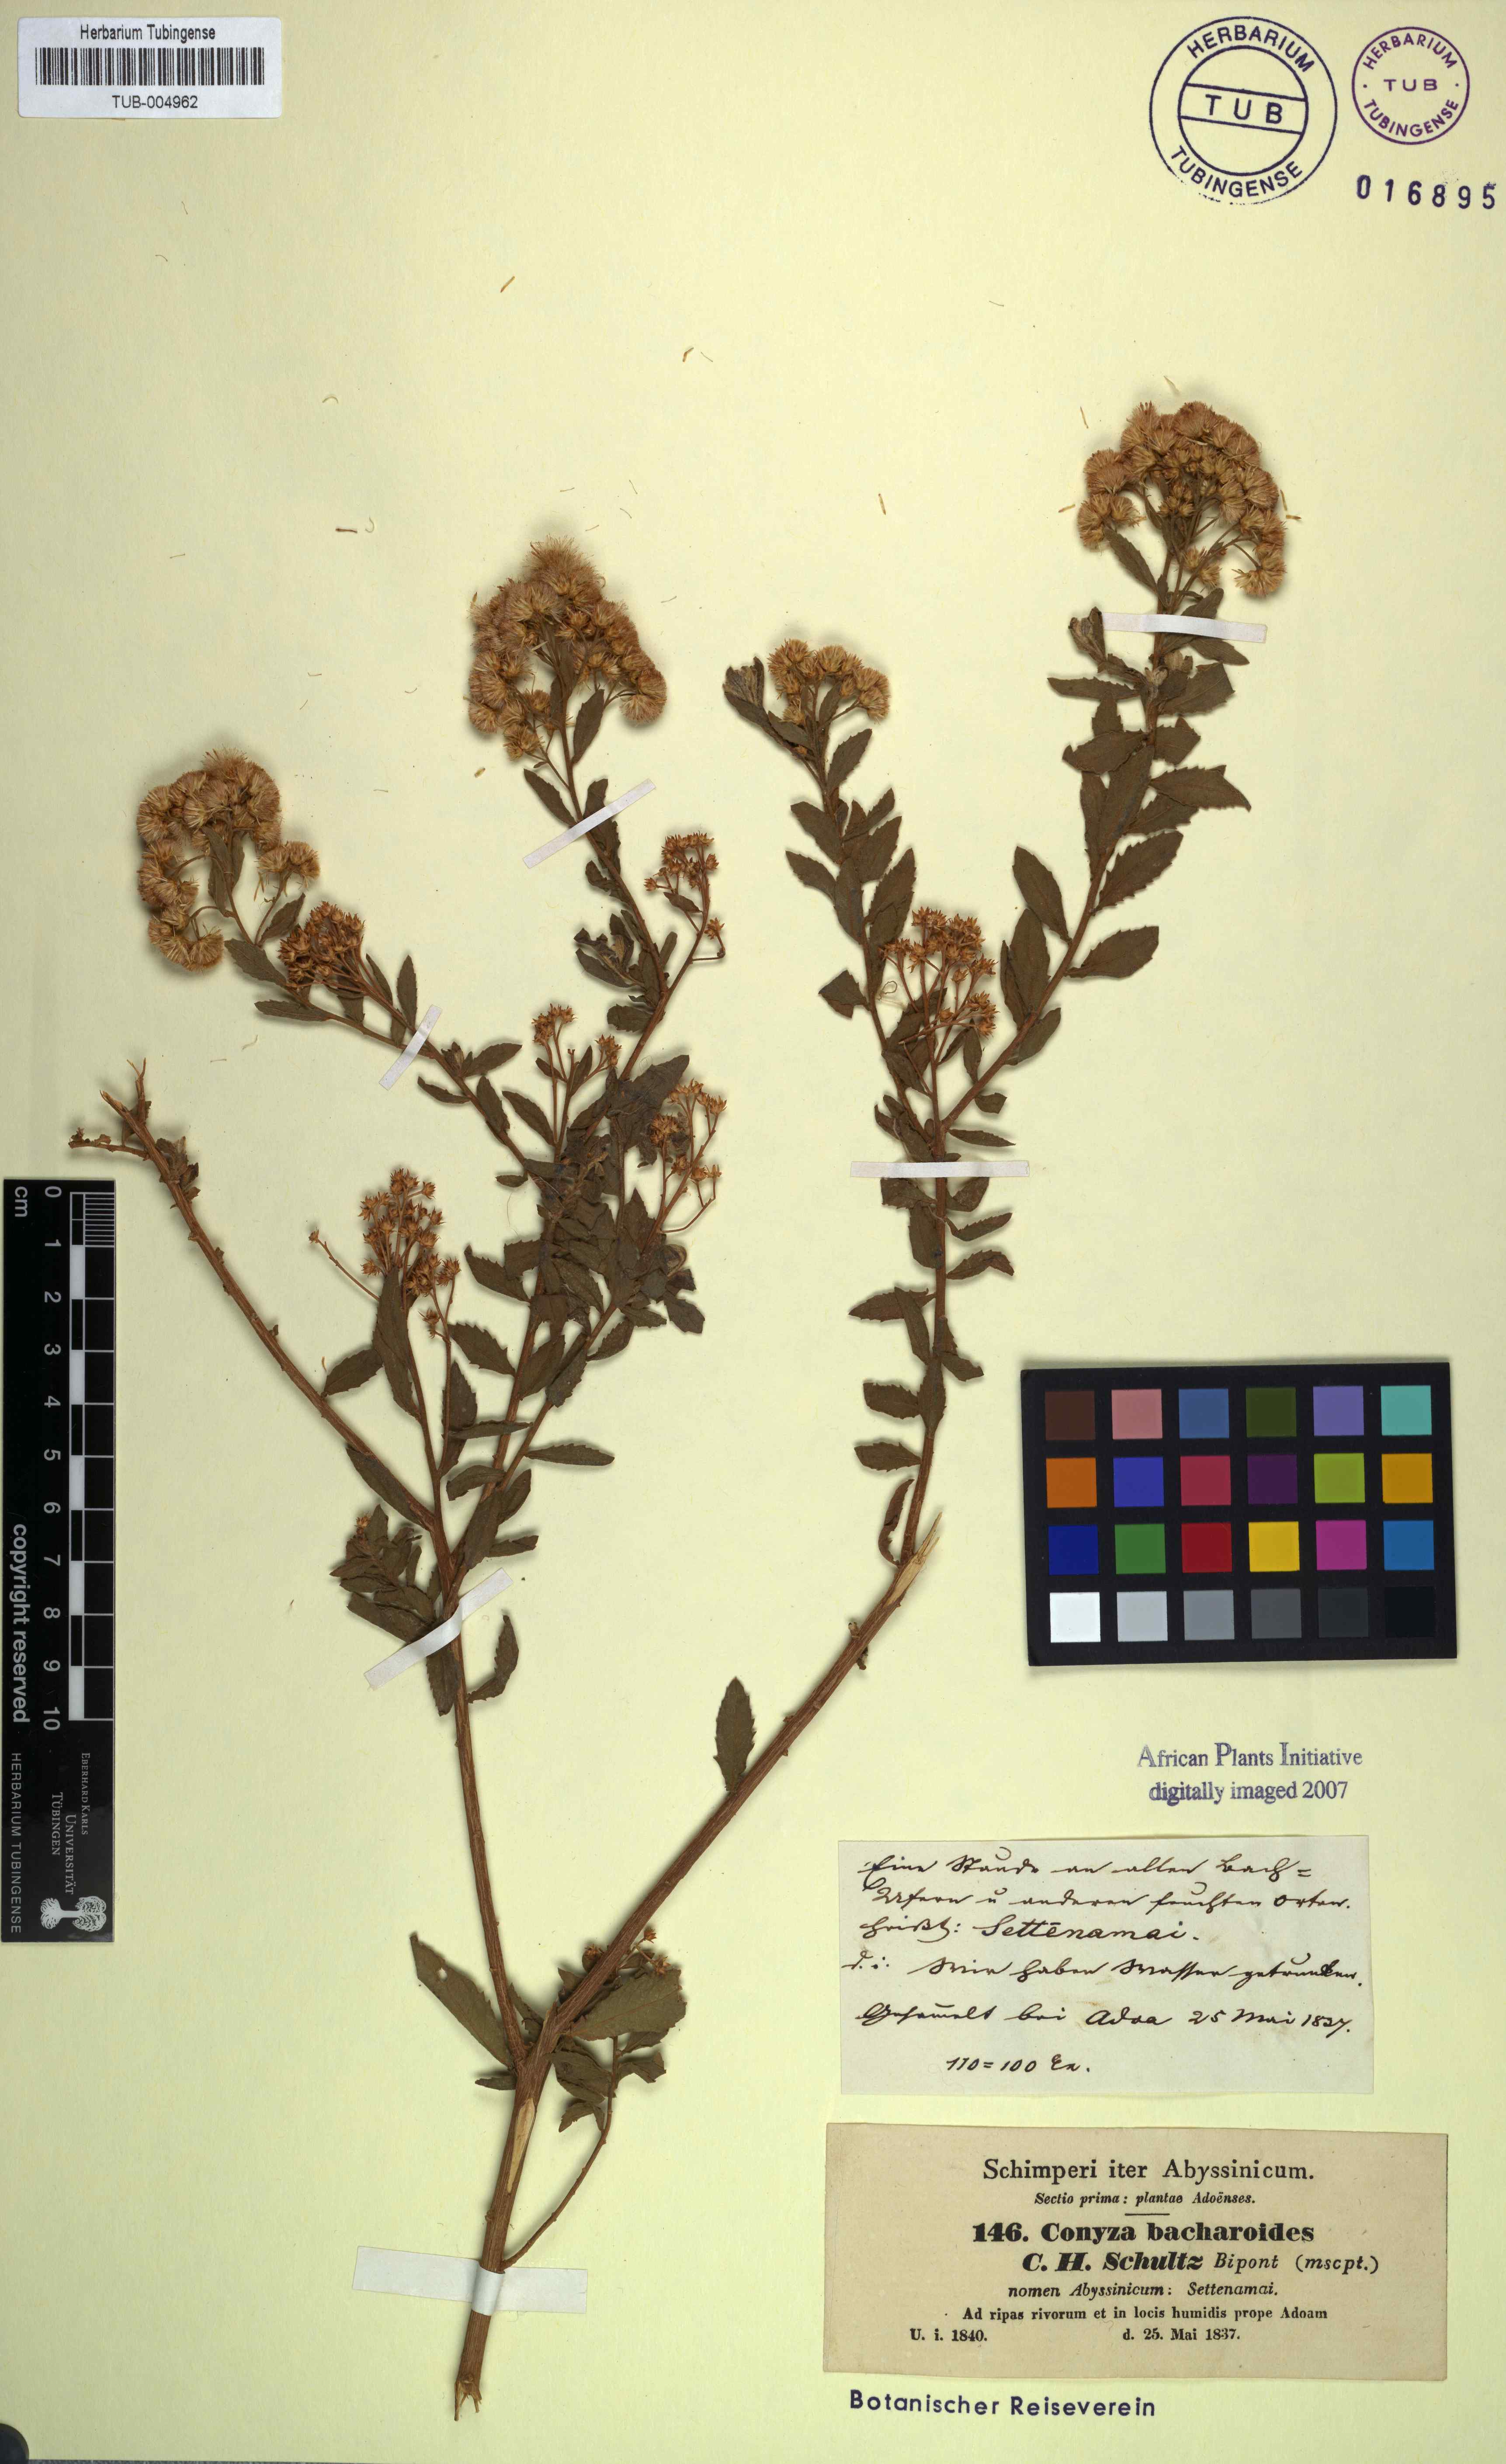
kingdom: Plantae
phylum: Tracheophyta
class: Magnoliopsida
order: Asterales
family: Asteraceae
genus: Pluchea
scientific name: Pluchea dioscoridis
